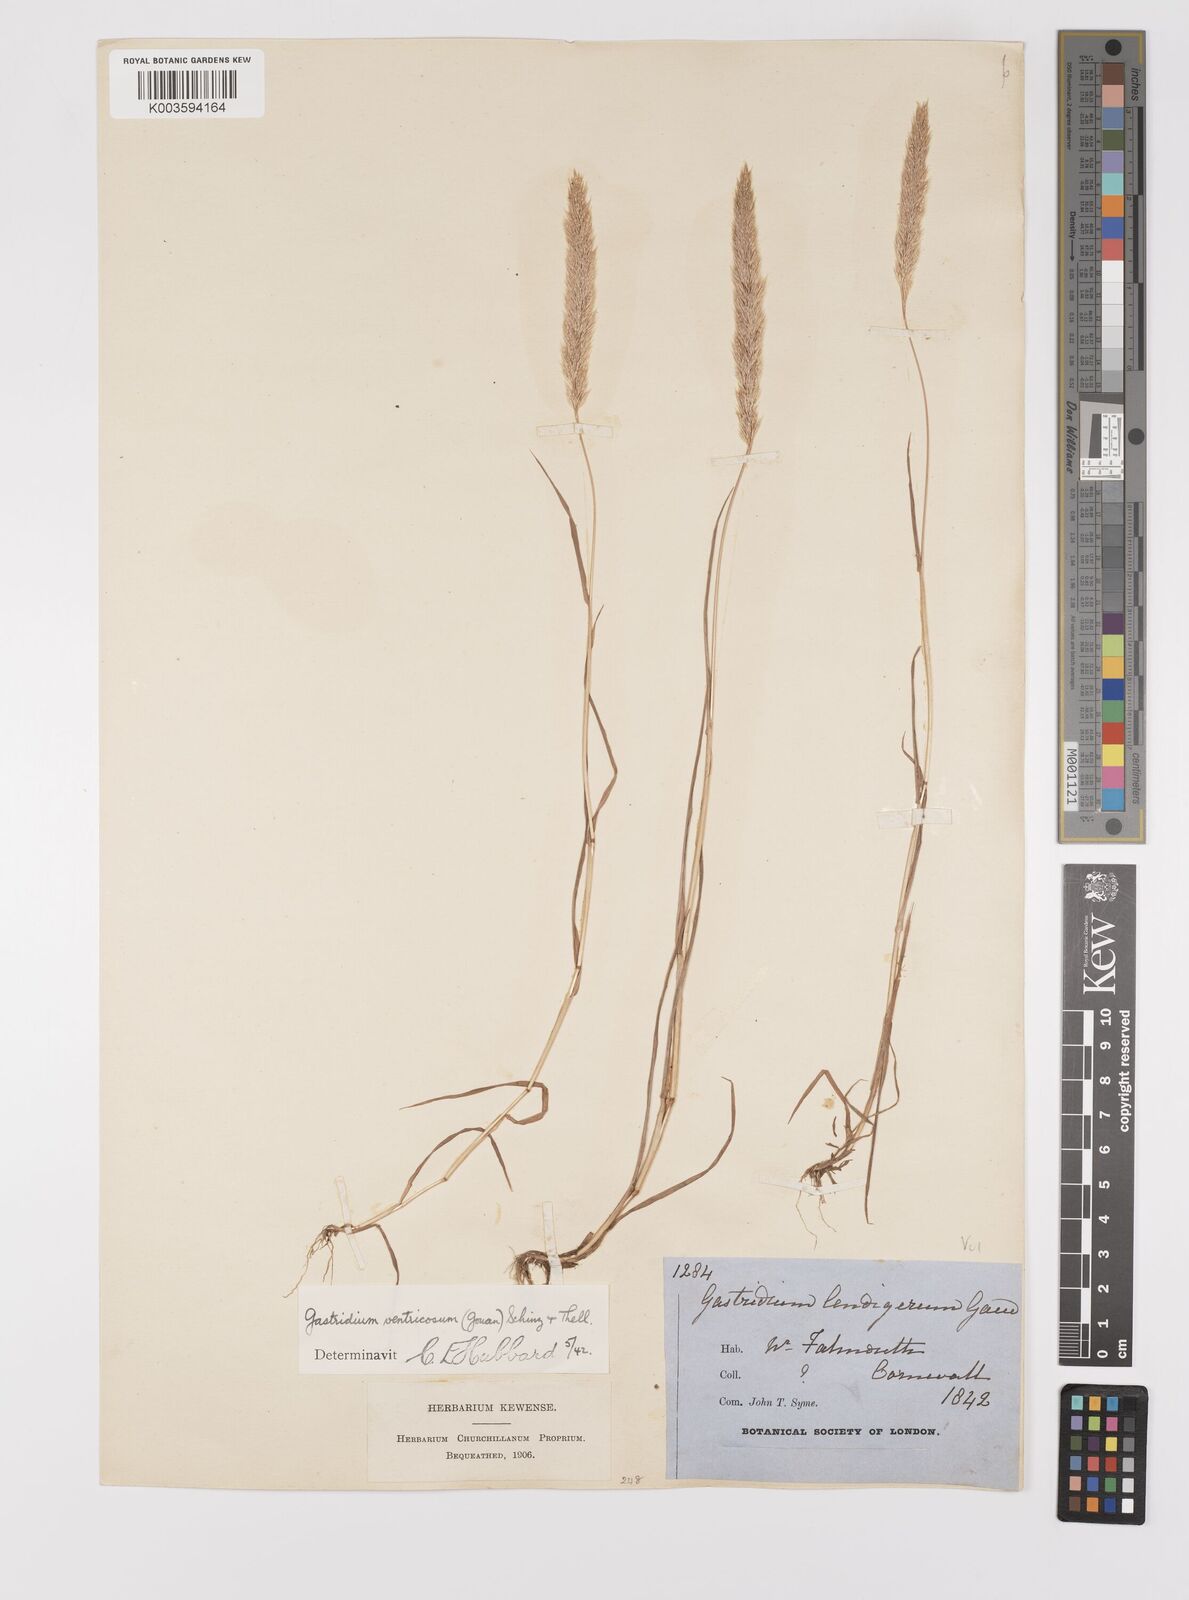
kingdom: Plantae
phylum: Tracheophyta
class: Liliopsida
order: Poales
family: Poaceae
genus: Gastridium
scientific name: Gastridium ventricosum
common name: Nit-grass
